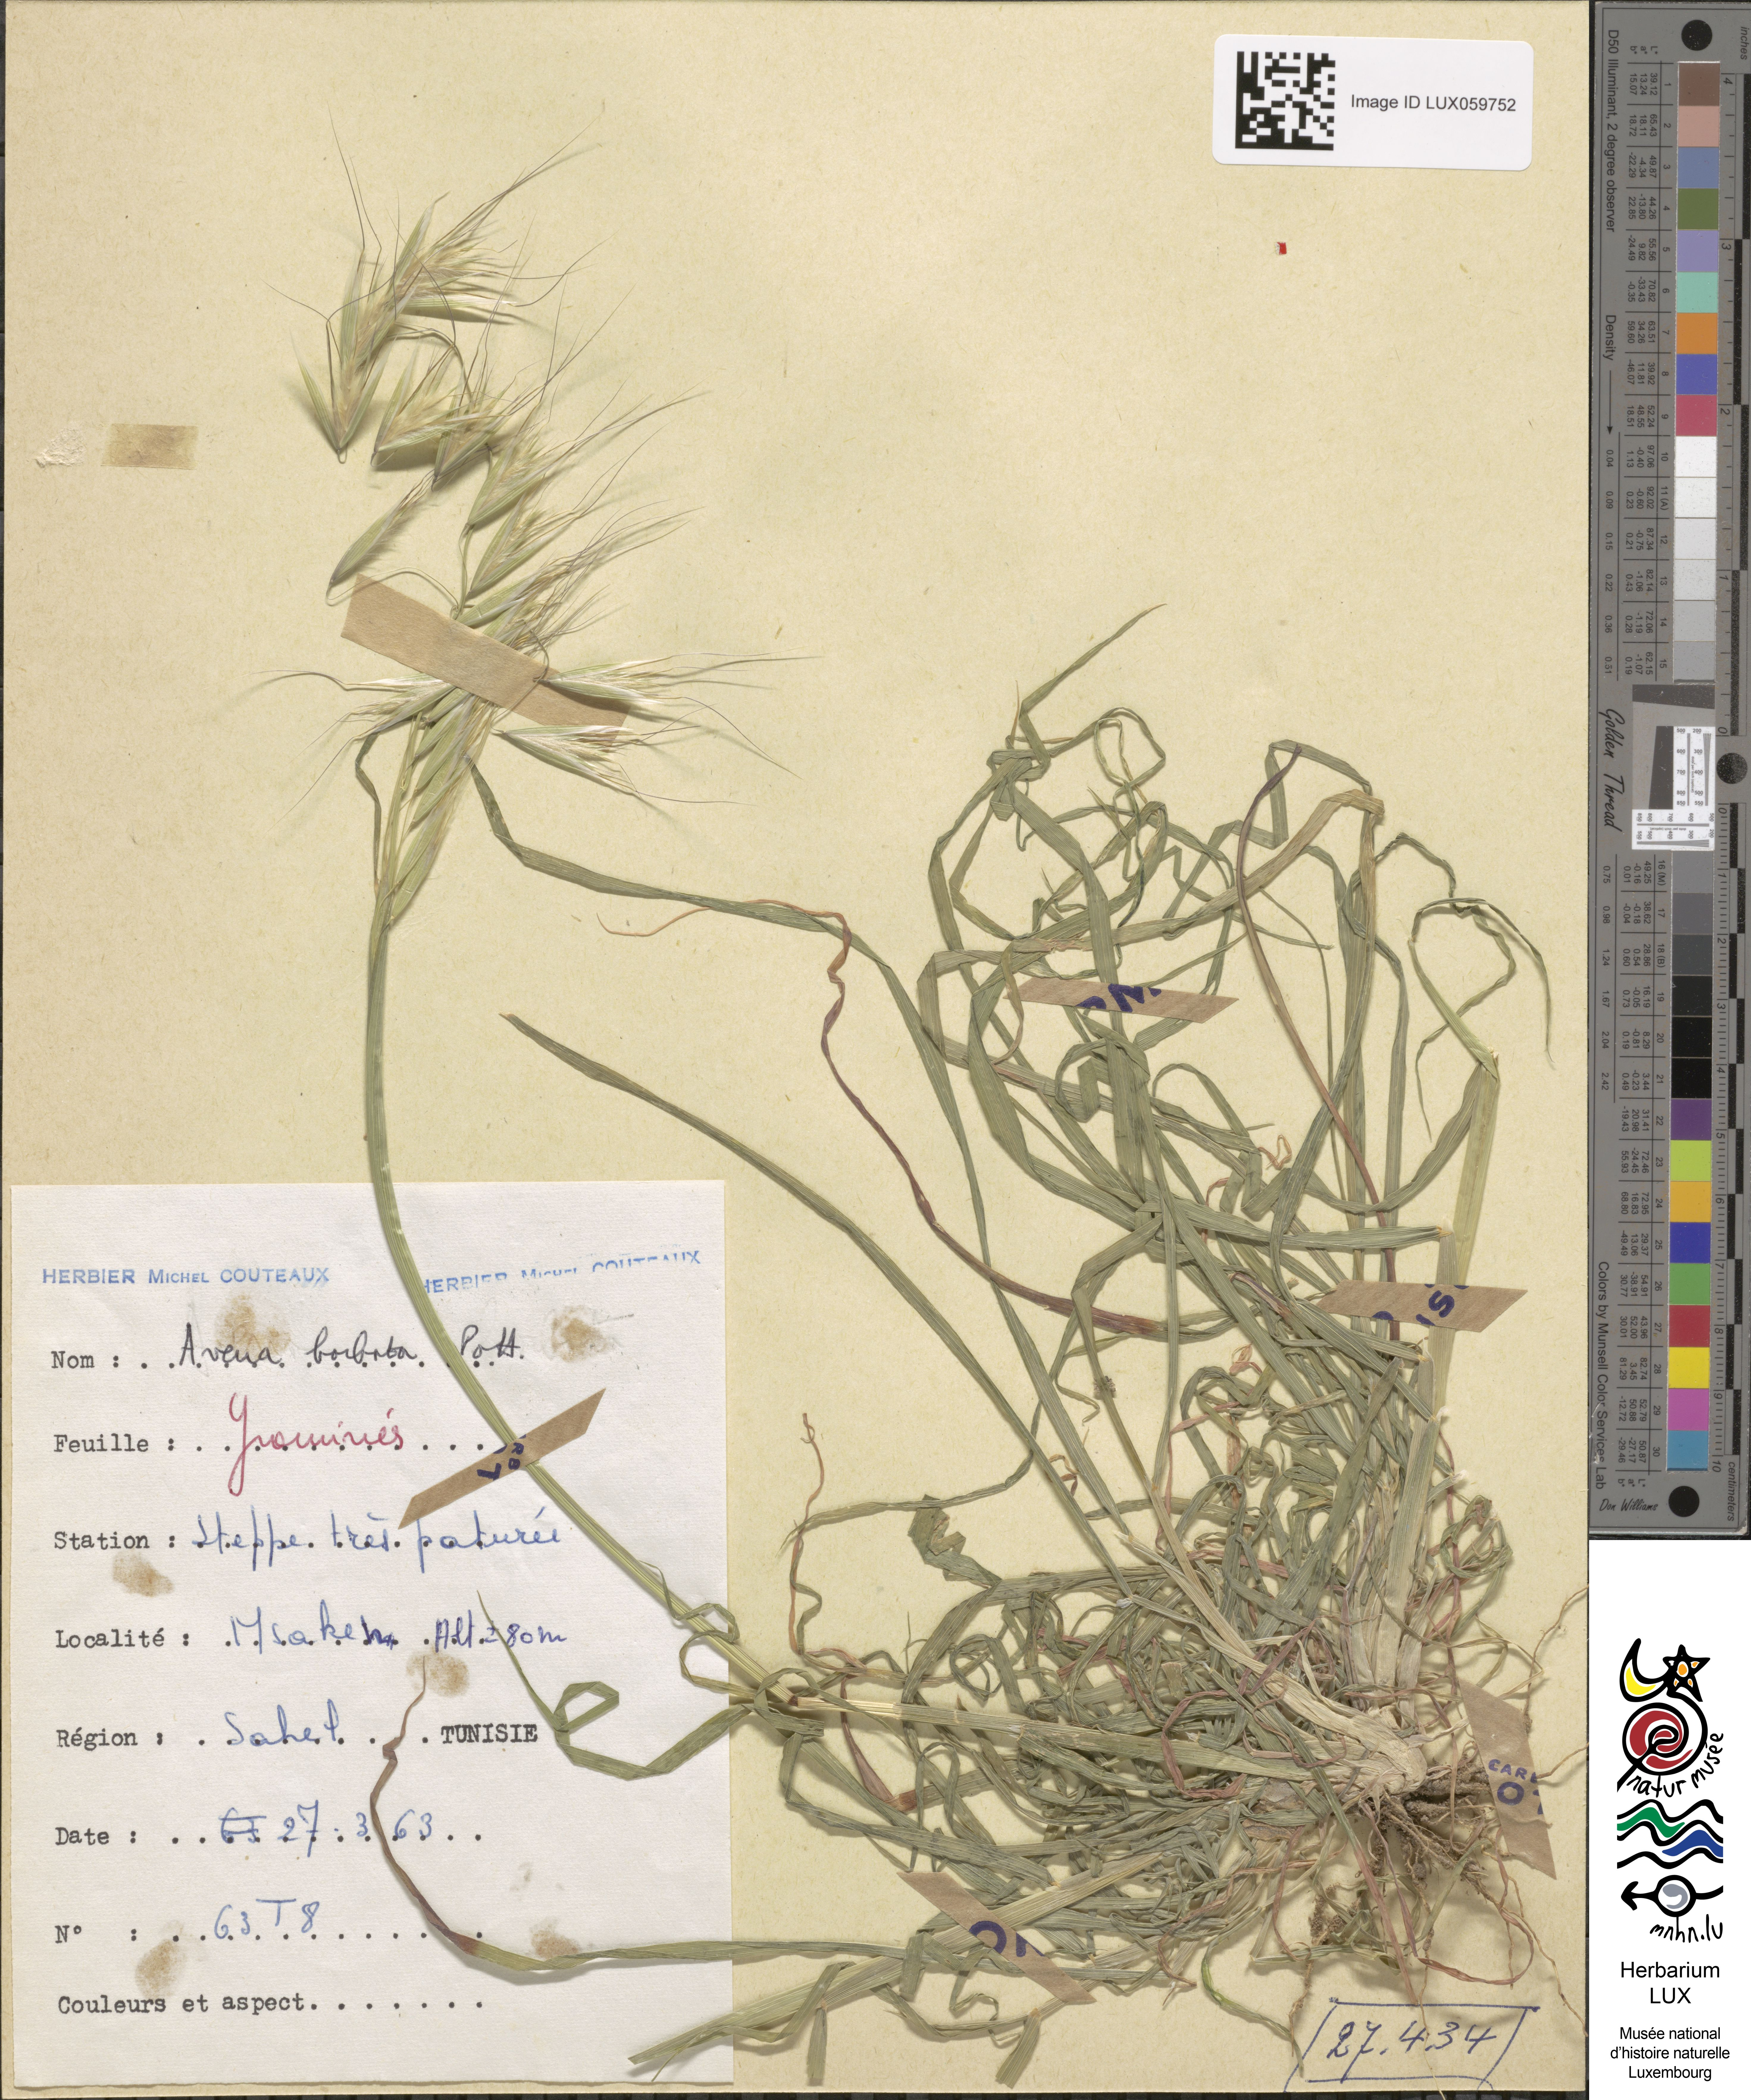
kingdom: Plantae
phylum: Tracheophyta
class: Liliopsida
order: Poales
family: Poaceae
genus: Avena
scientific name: Avena barbata
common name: Slender oat
